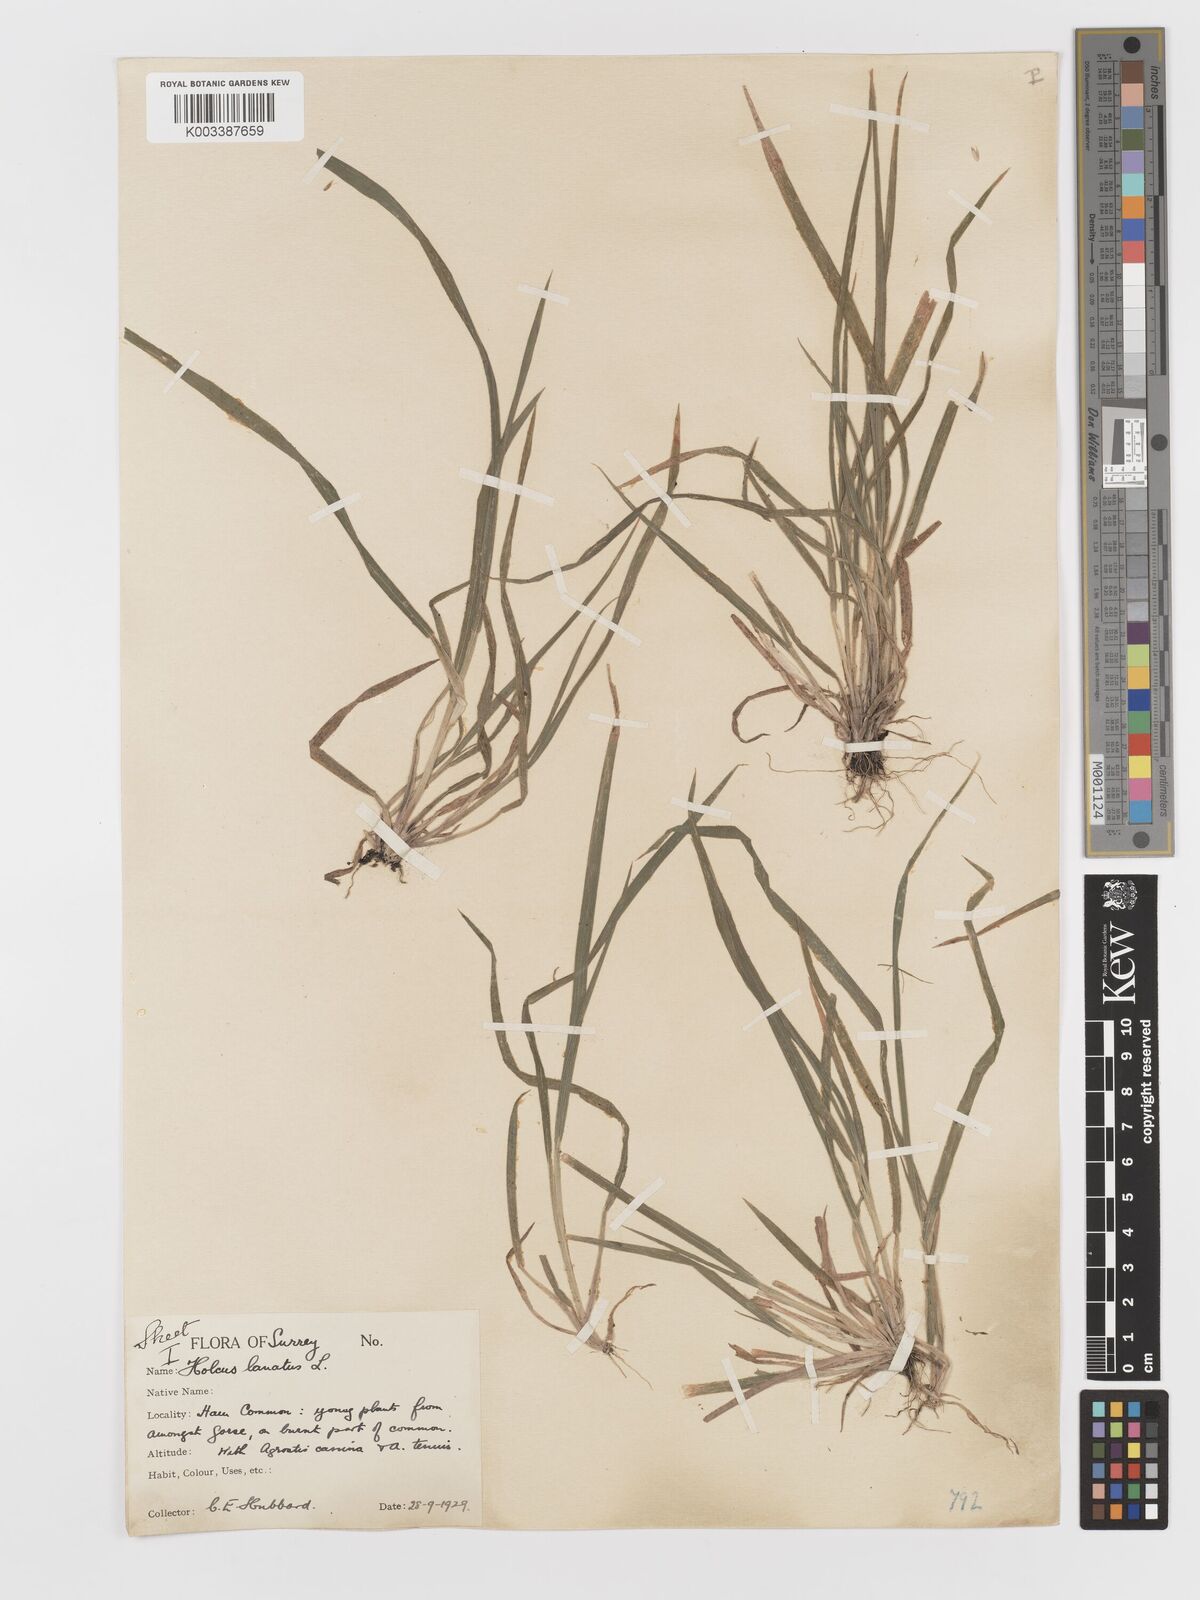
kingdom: Plantae
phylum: Tracheophyta
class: Liliopsida
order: Poales
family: Poaceae
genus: Holcus
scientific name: Holcus lanatus
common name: Yorkshire-fog
